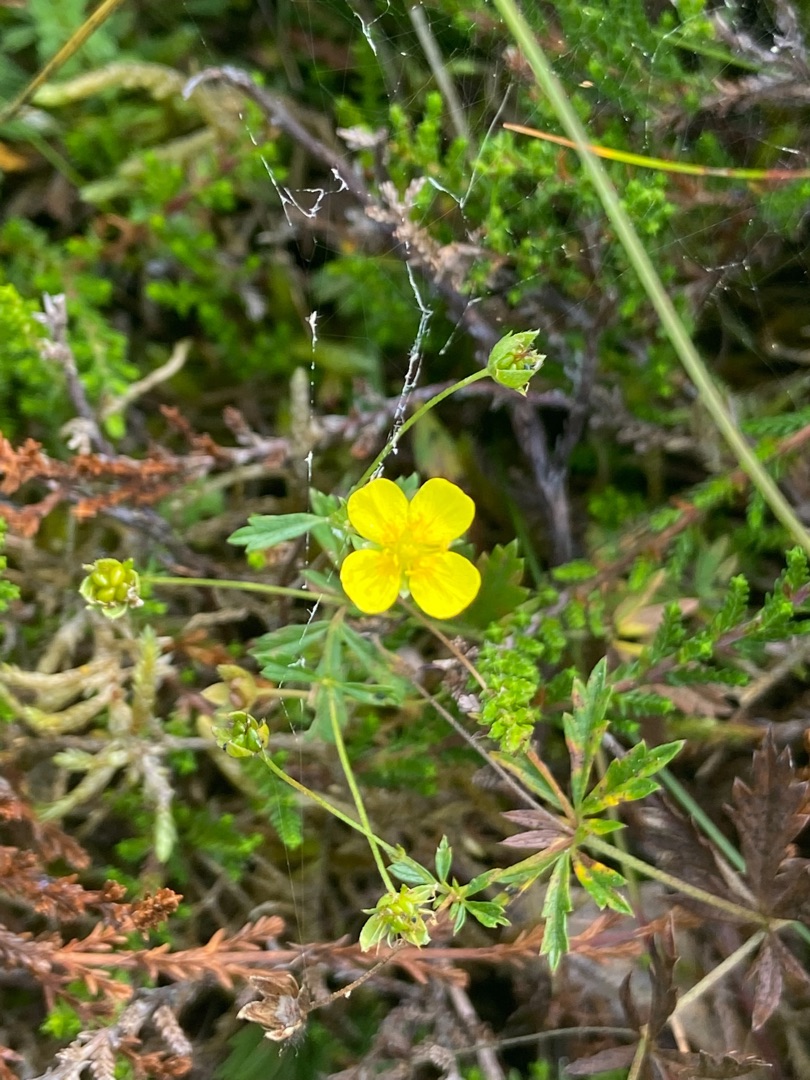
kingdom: Plantae
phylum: Tracheophyta
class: Magnoliopsida
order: Rosales
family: Rosaceae
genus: Potentilla
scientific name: Potentilla erecta
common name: Tormentil
